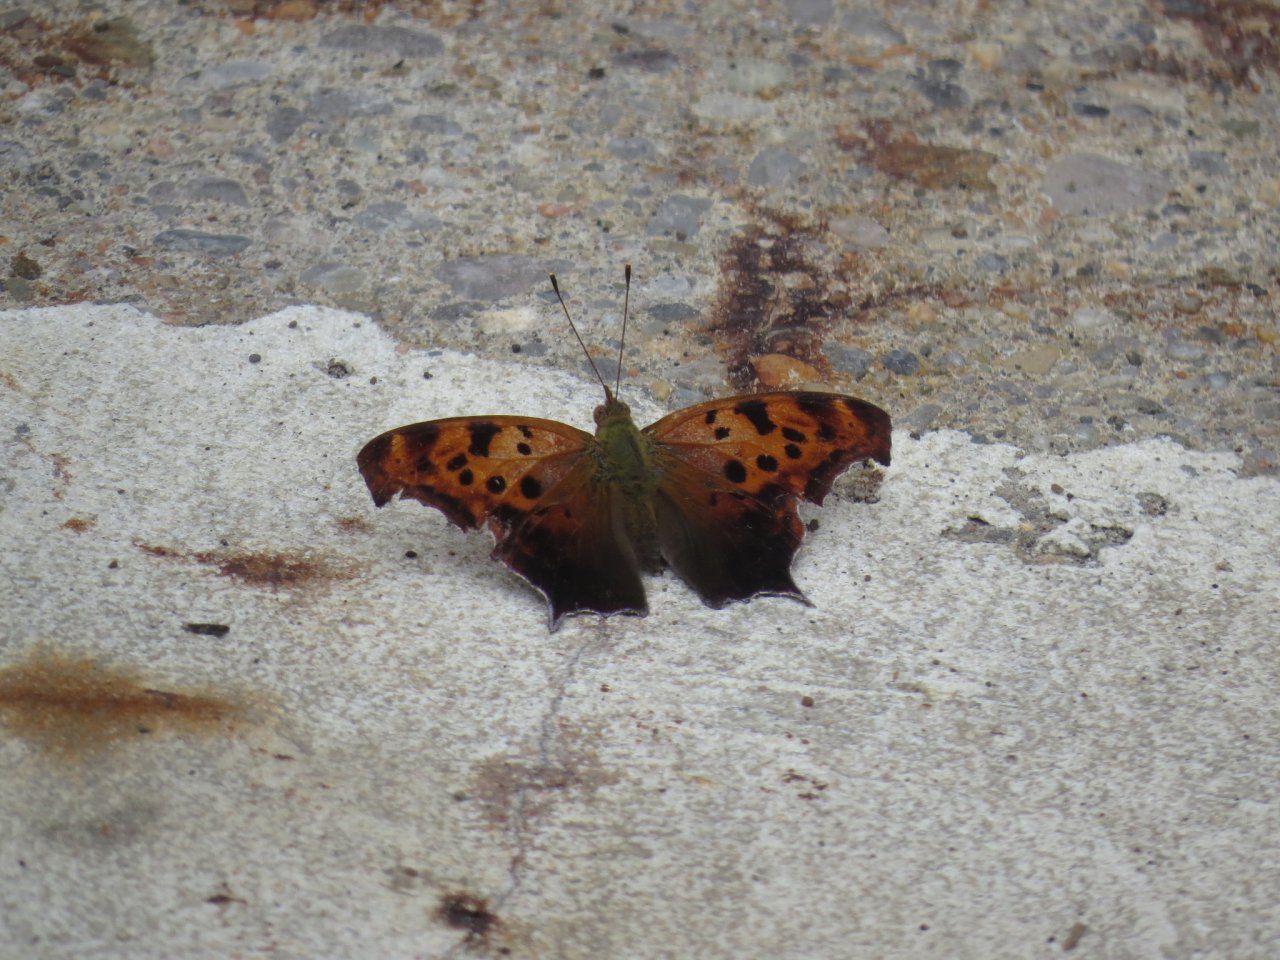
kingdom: Animalia
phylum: Arthropoda
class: Insecta
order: Lepidoptera
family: Nymphalidae
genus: Polygonia
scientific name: Polygonia interrogationis
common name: Question Mark
